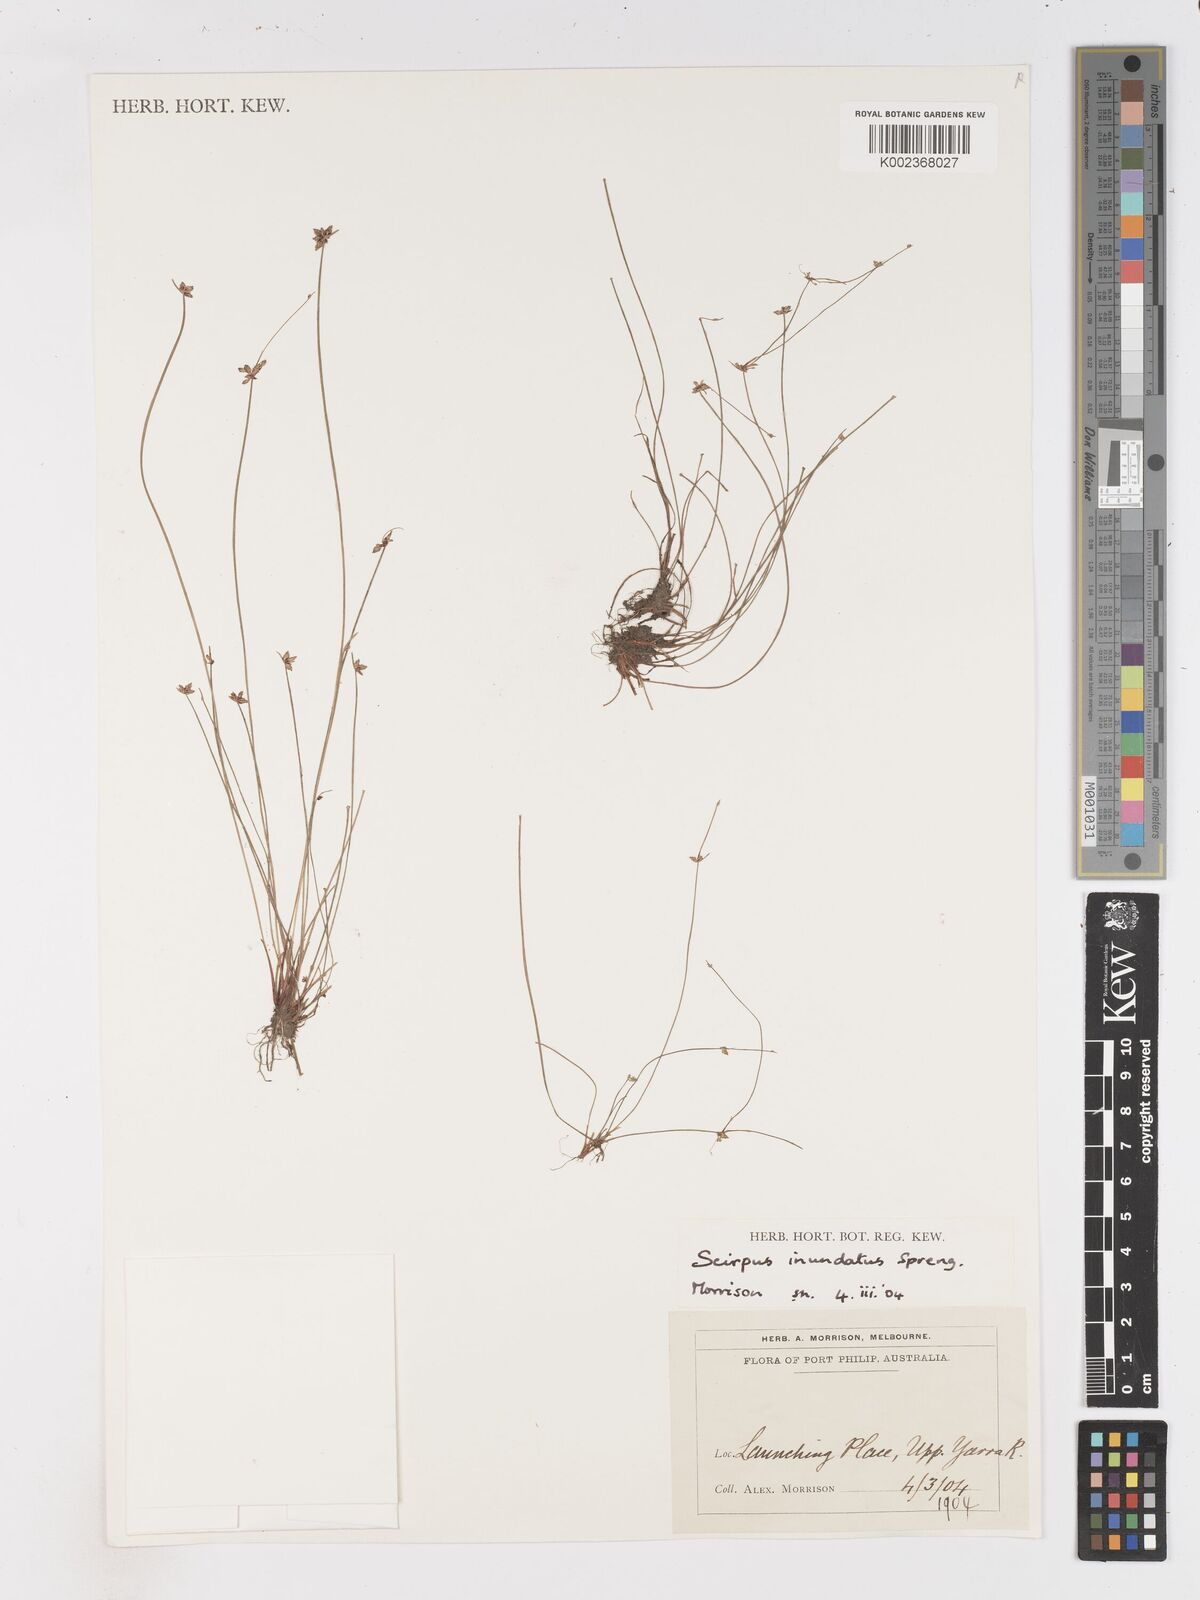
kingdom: Plantae
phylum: Tracheophyta
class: Liliopsida
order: Poales
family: Cyperaceae
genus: Isolepis
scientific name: Isolepis inundata
